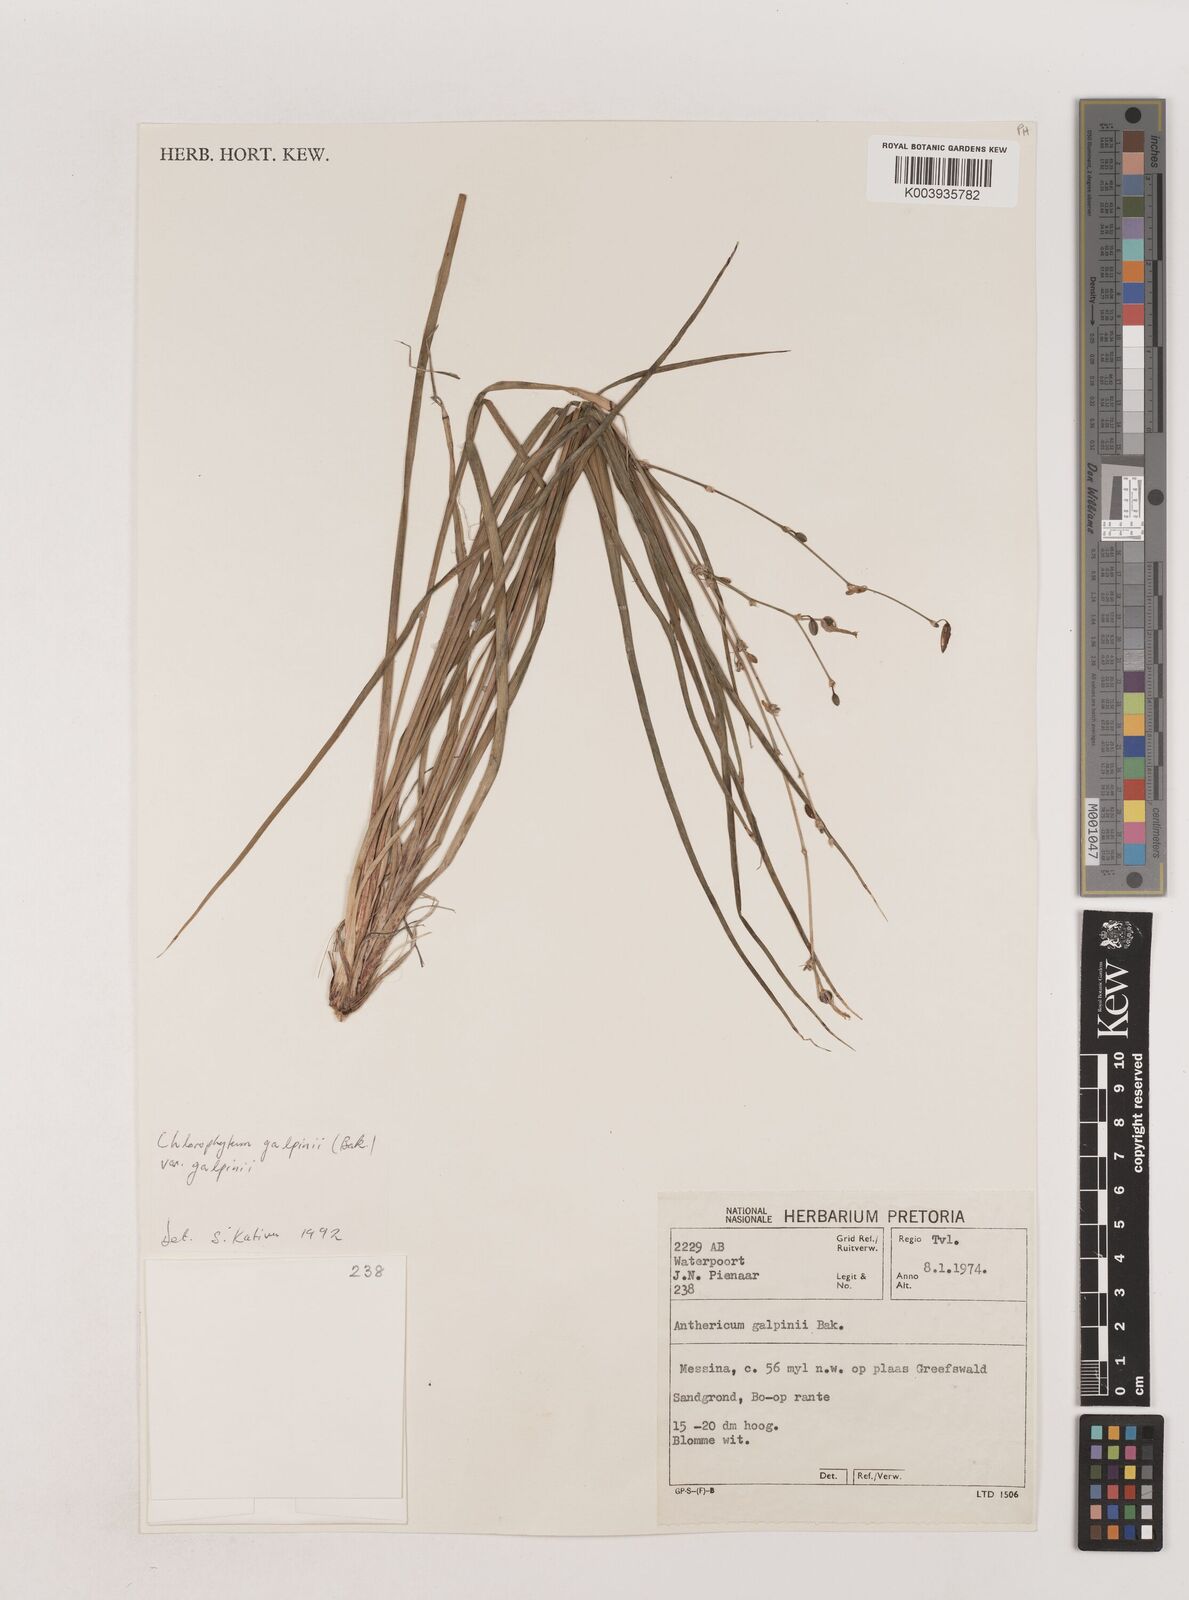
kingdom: Plantae
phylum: Tracheophyta
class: Liliopsida
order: Asparagales
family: Asparagaceae
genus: Chlorophytum
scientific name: Chlorophytum galpinii
